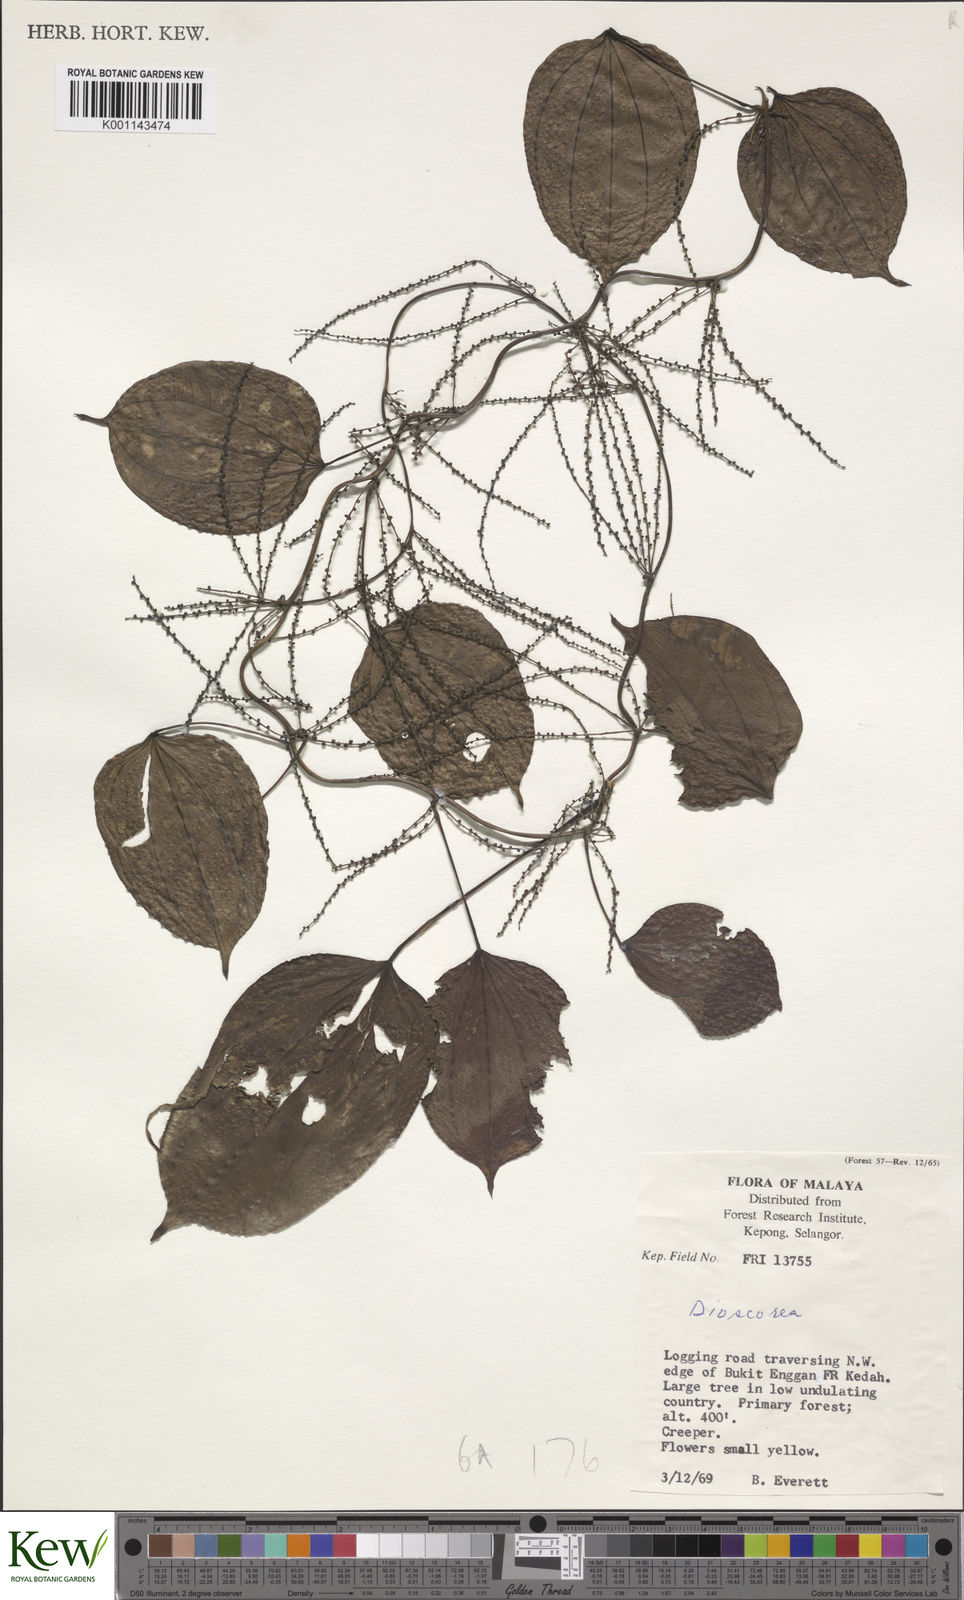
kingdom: Plantae
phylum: Tracheophyta
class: Liliopsida
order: Dioscoreales
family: Dioscoreaceae
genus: Dioscorea
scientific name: Dioscorea
